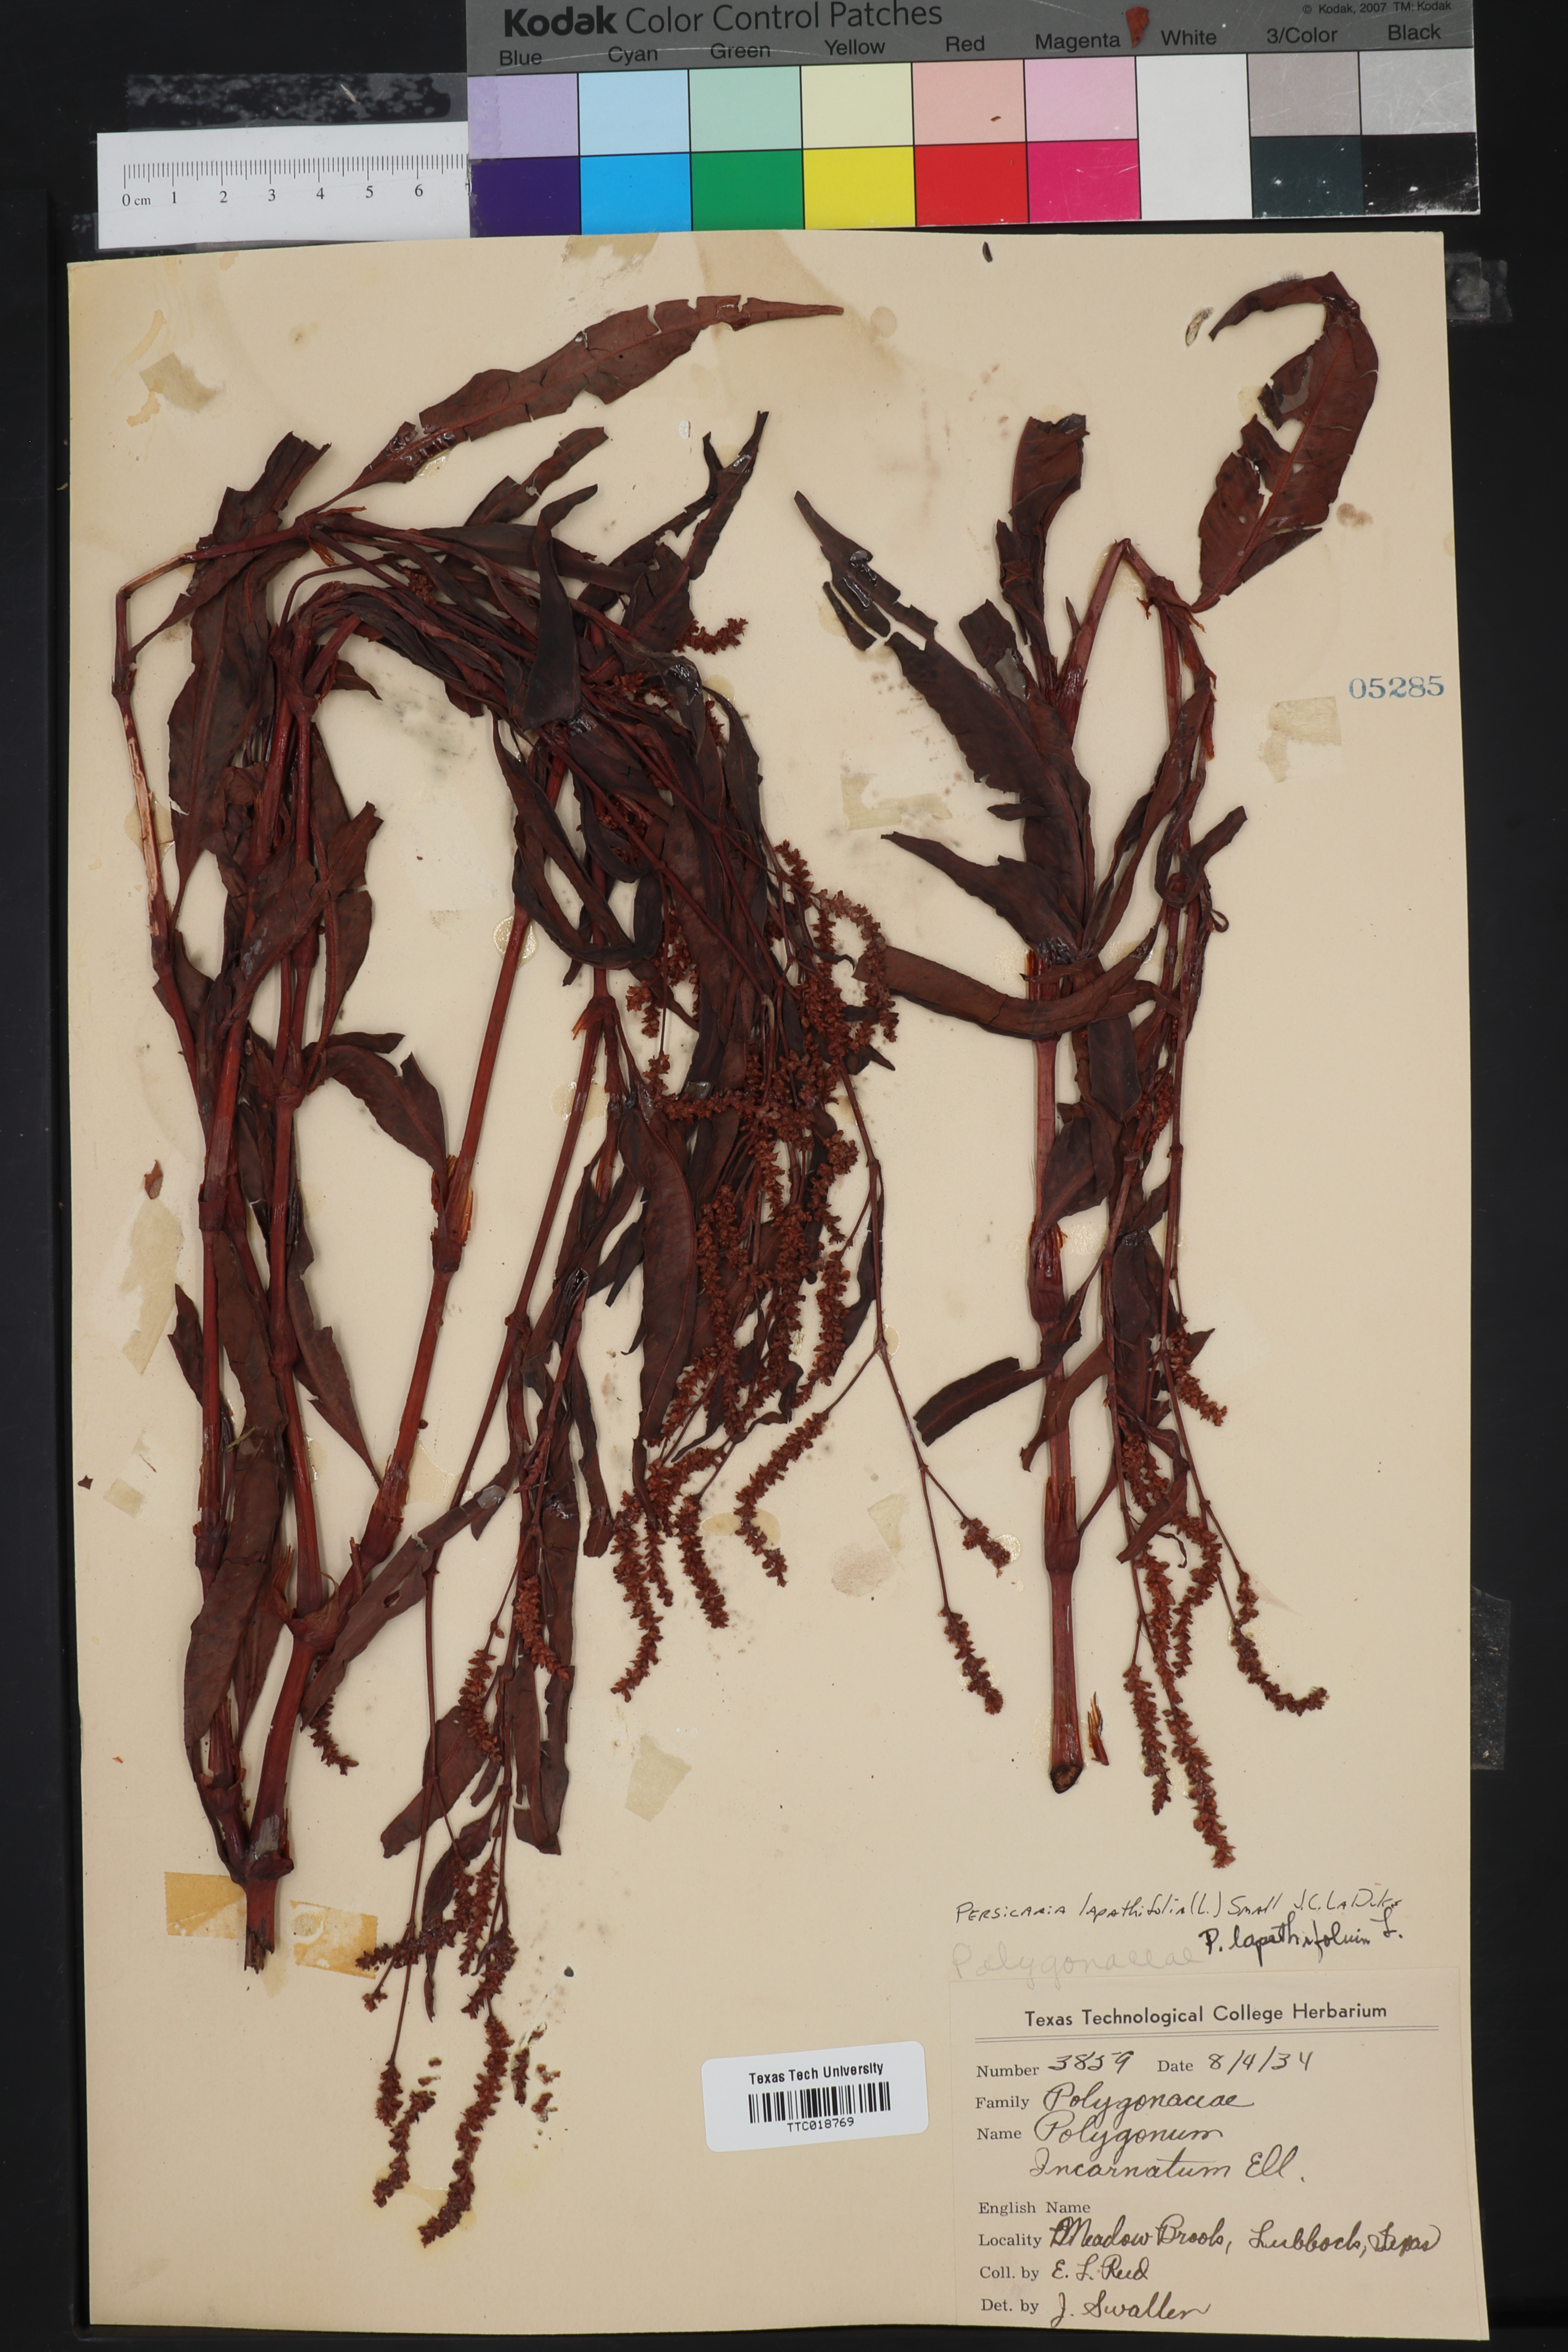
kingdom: Plantae
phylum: Tracheophyta
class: Magnoliopsida
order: Caryophyllales
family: Polygonaceae
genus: Persicaria
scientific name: Persicaria lapathifolia
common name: Curlytop knotweed
